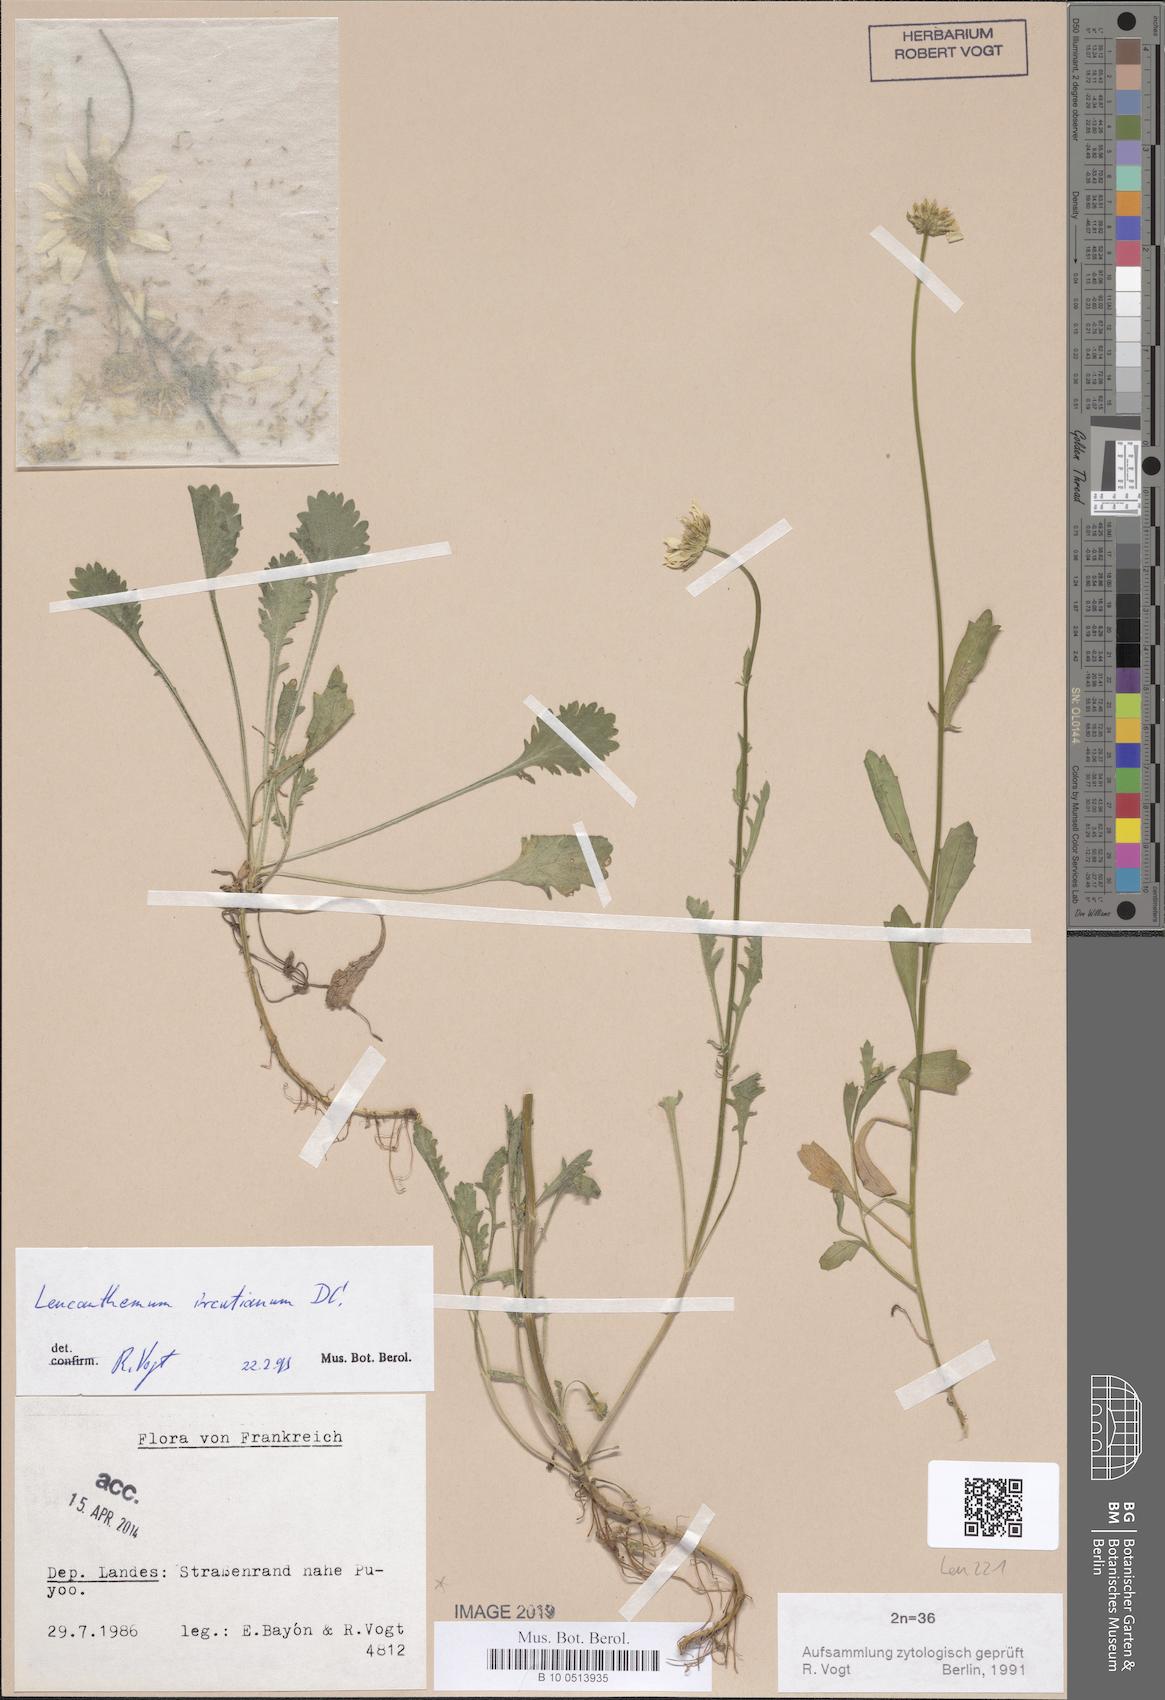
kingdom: Plantae
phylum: Tracheophyta
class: Magnoliopsida
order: Asterales
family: Asteraceae
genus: Leucanthemum
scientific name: Leucanthemum ircutianum
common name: Daisy
